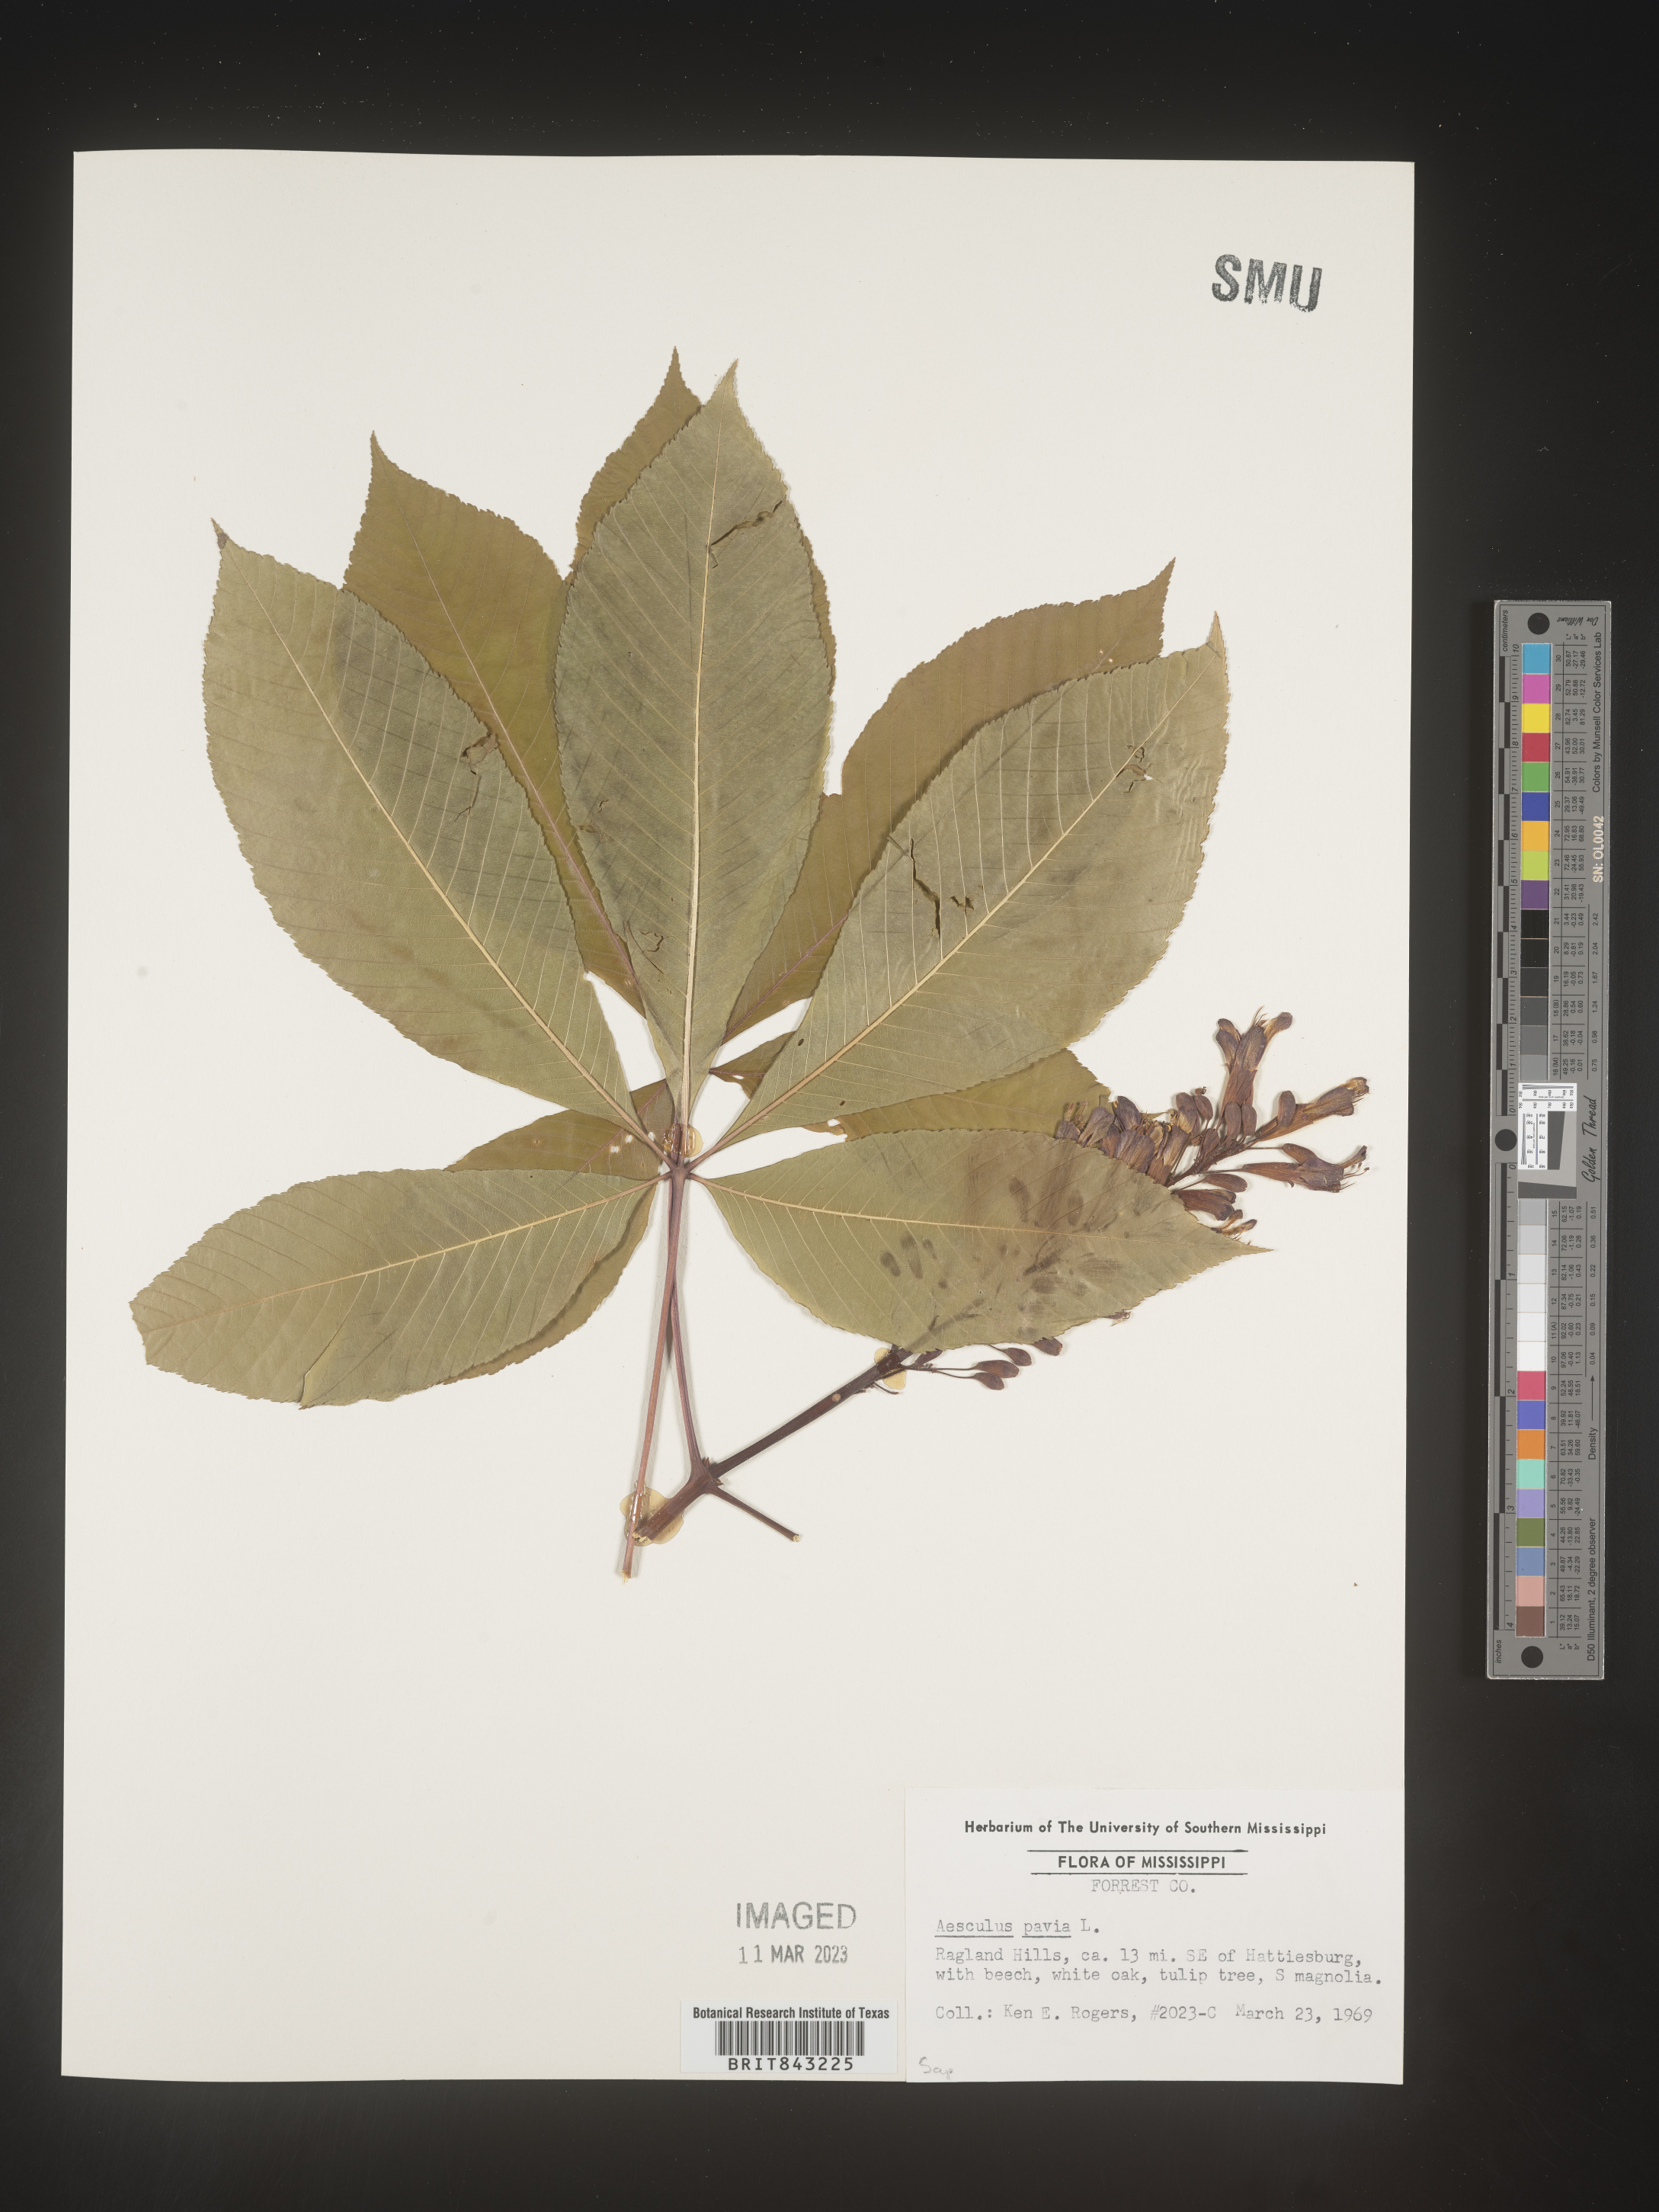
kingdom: Plantae
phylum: Tracheophyta
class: Magnoliopsida
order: Sapindales
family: Sapindaceae
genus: Aesculus
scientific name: Aesculus pavia
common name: Red buckeye
